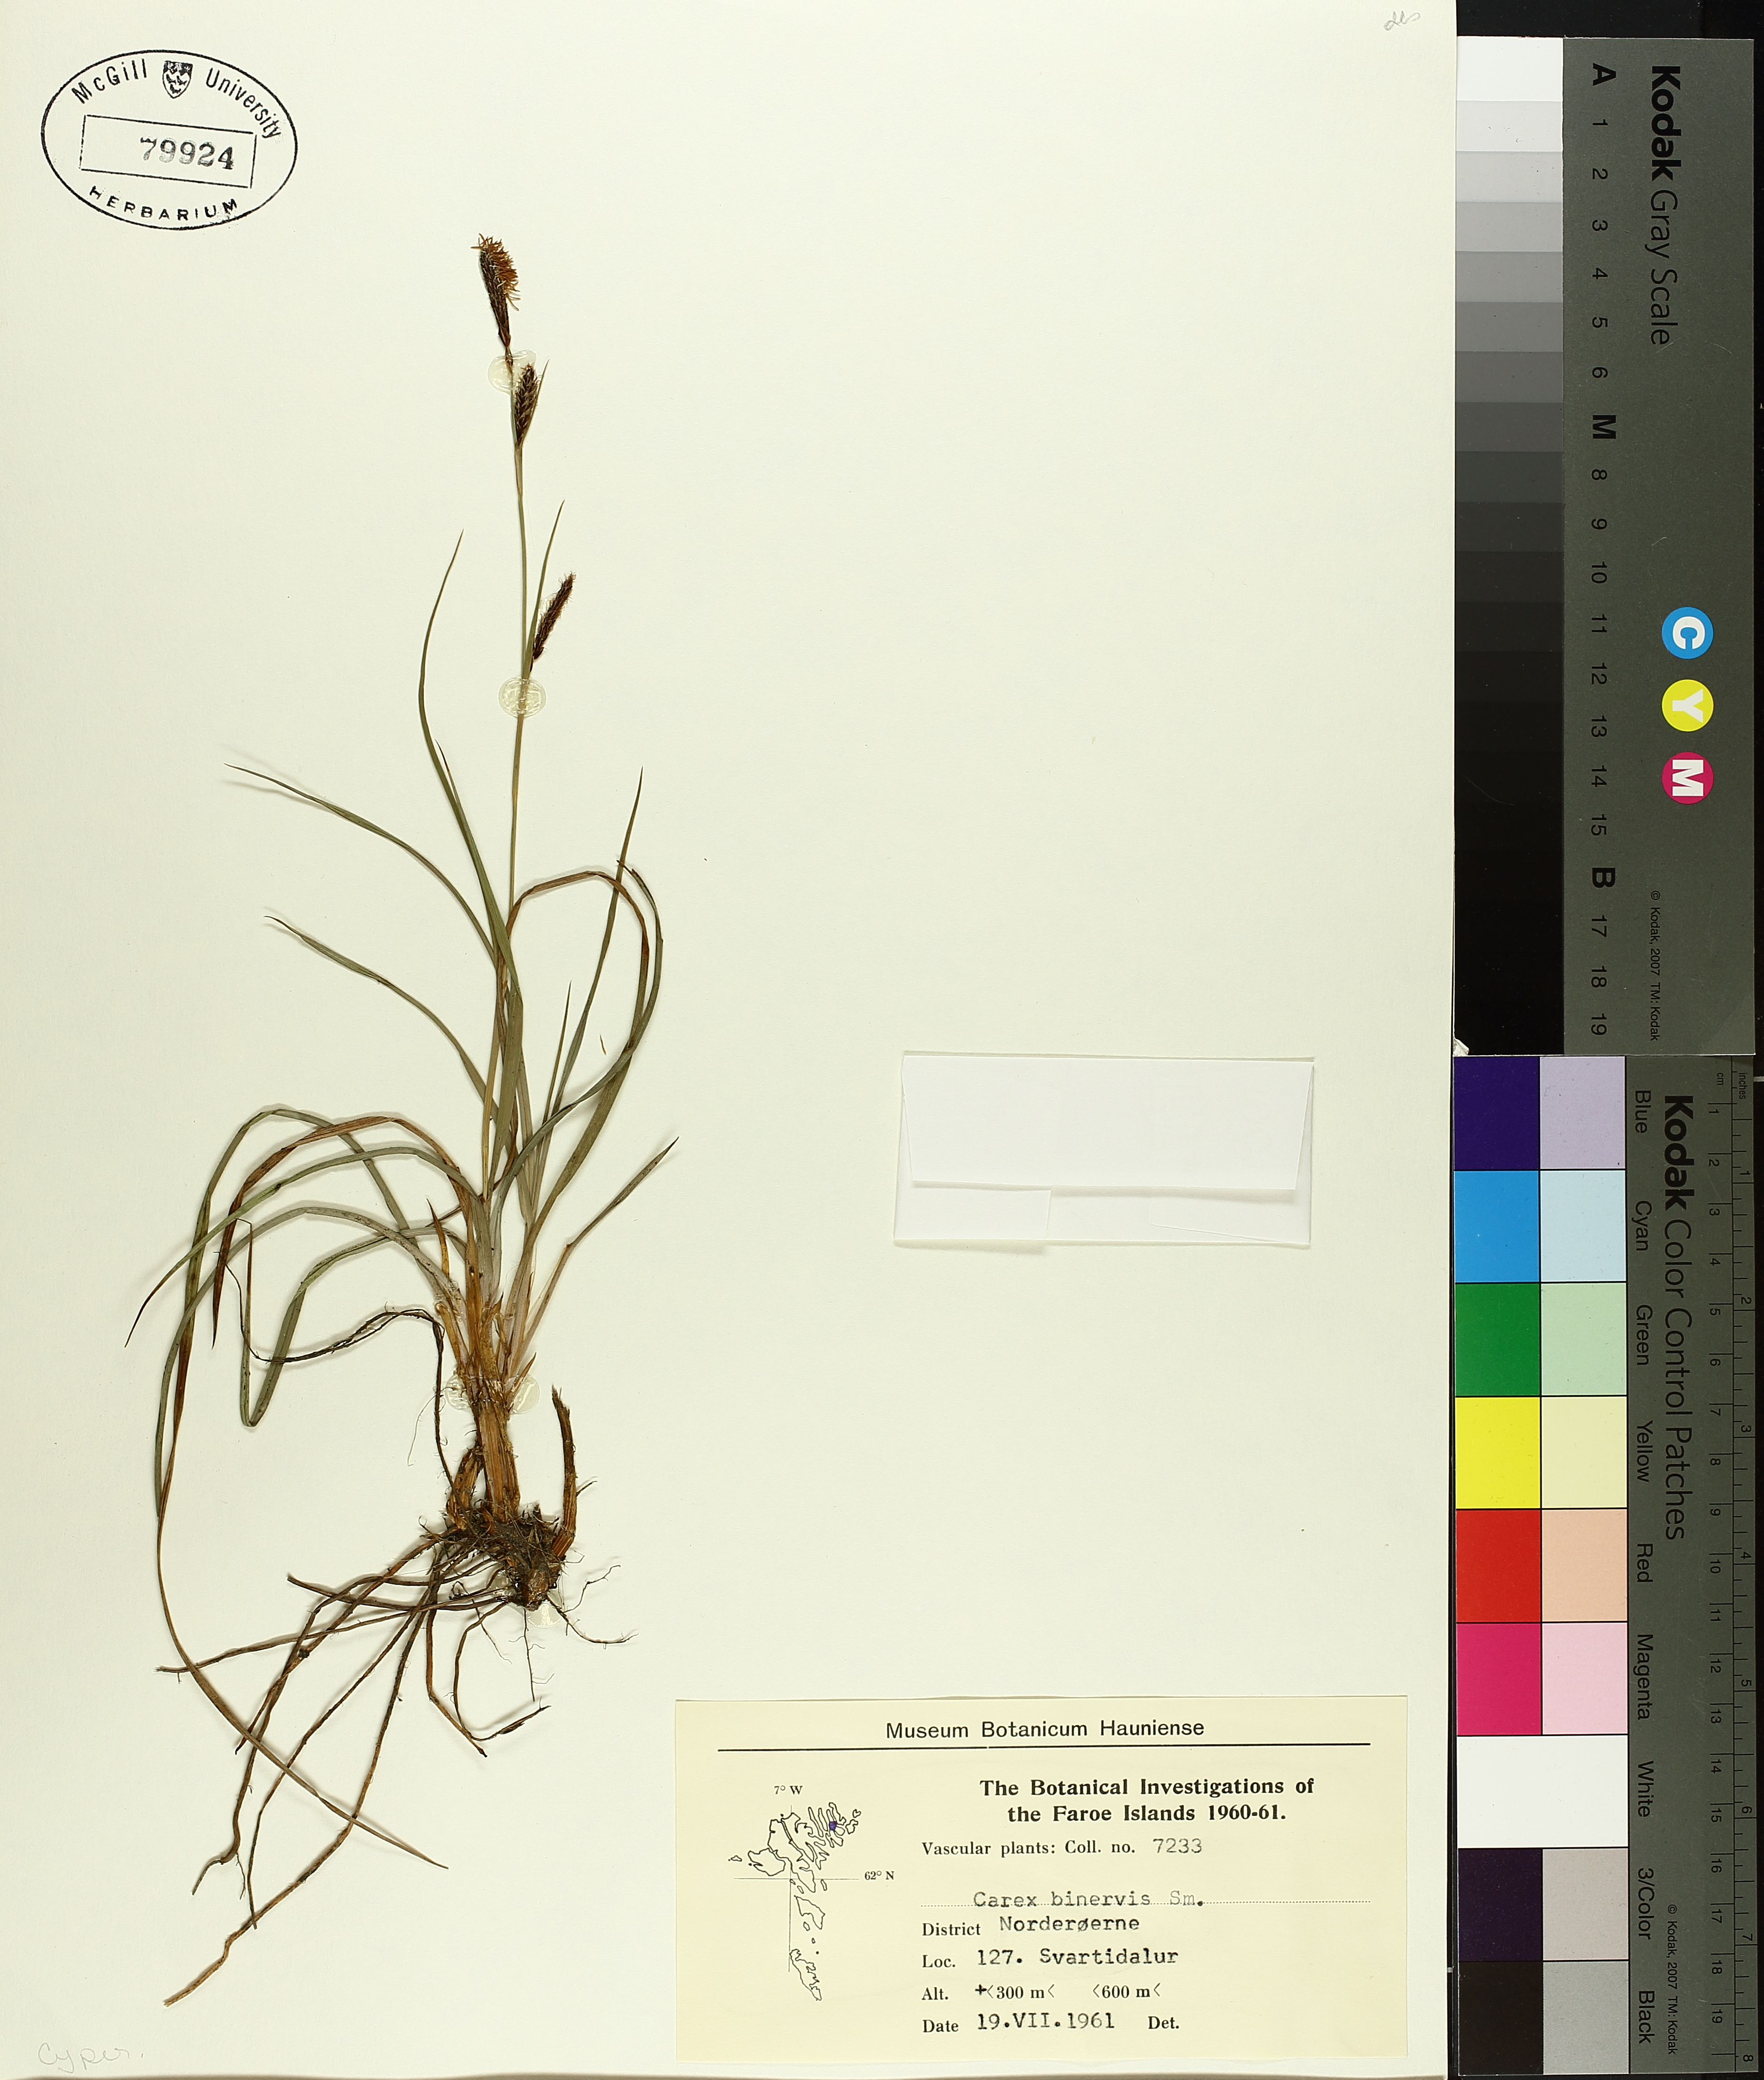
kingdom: Plantae
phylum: Tracheophyta
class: Liliopsida
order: Poales
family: Cyperaceae
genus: Carex
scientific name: Carex binervis
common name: Green-ribbed sedge
